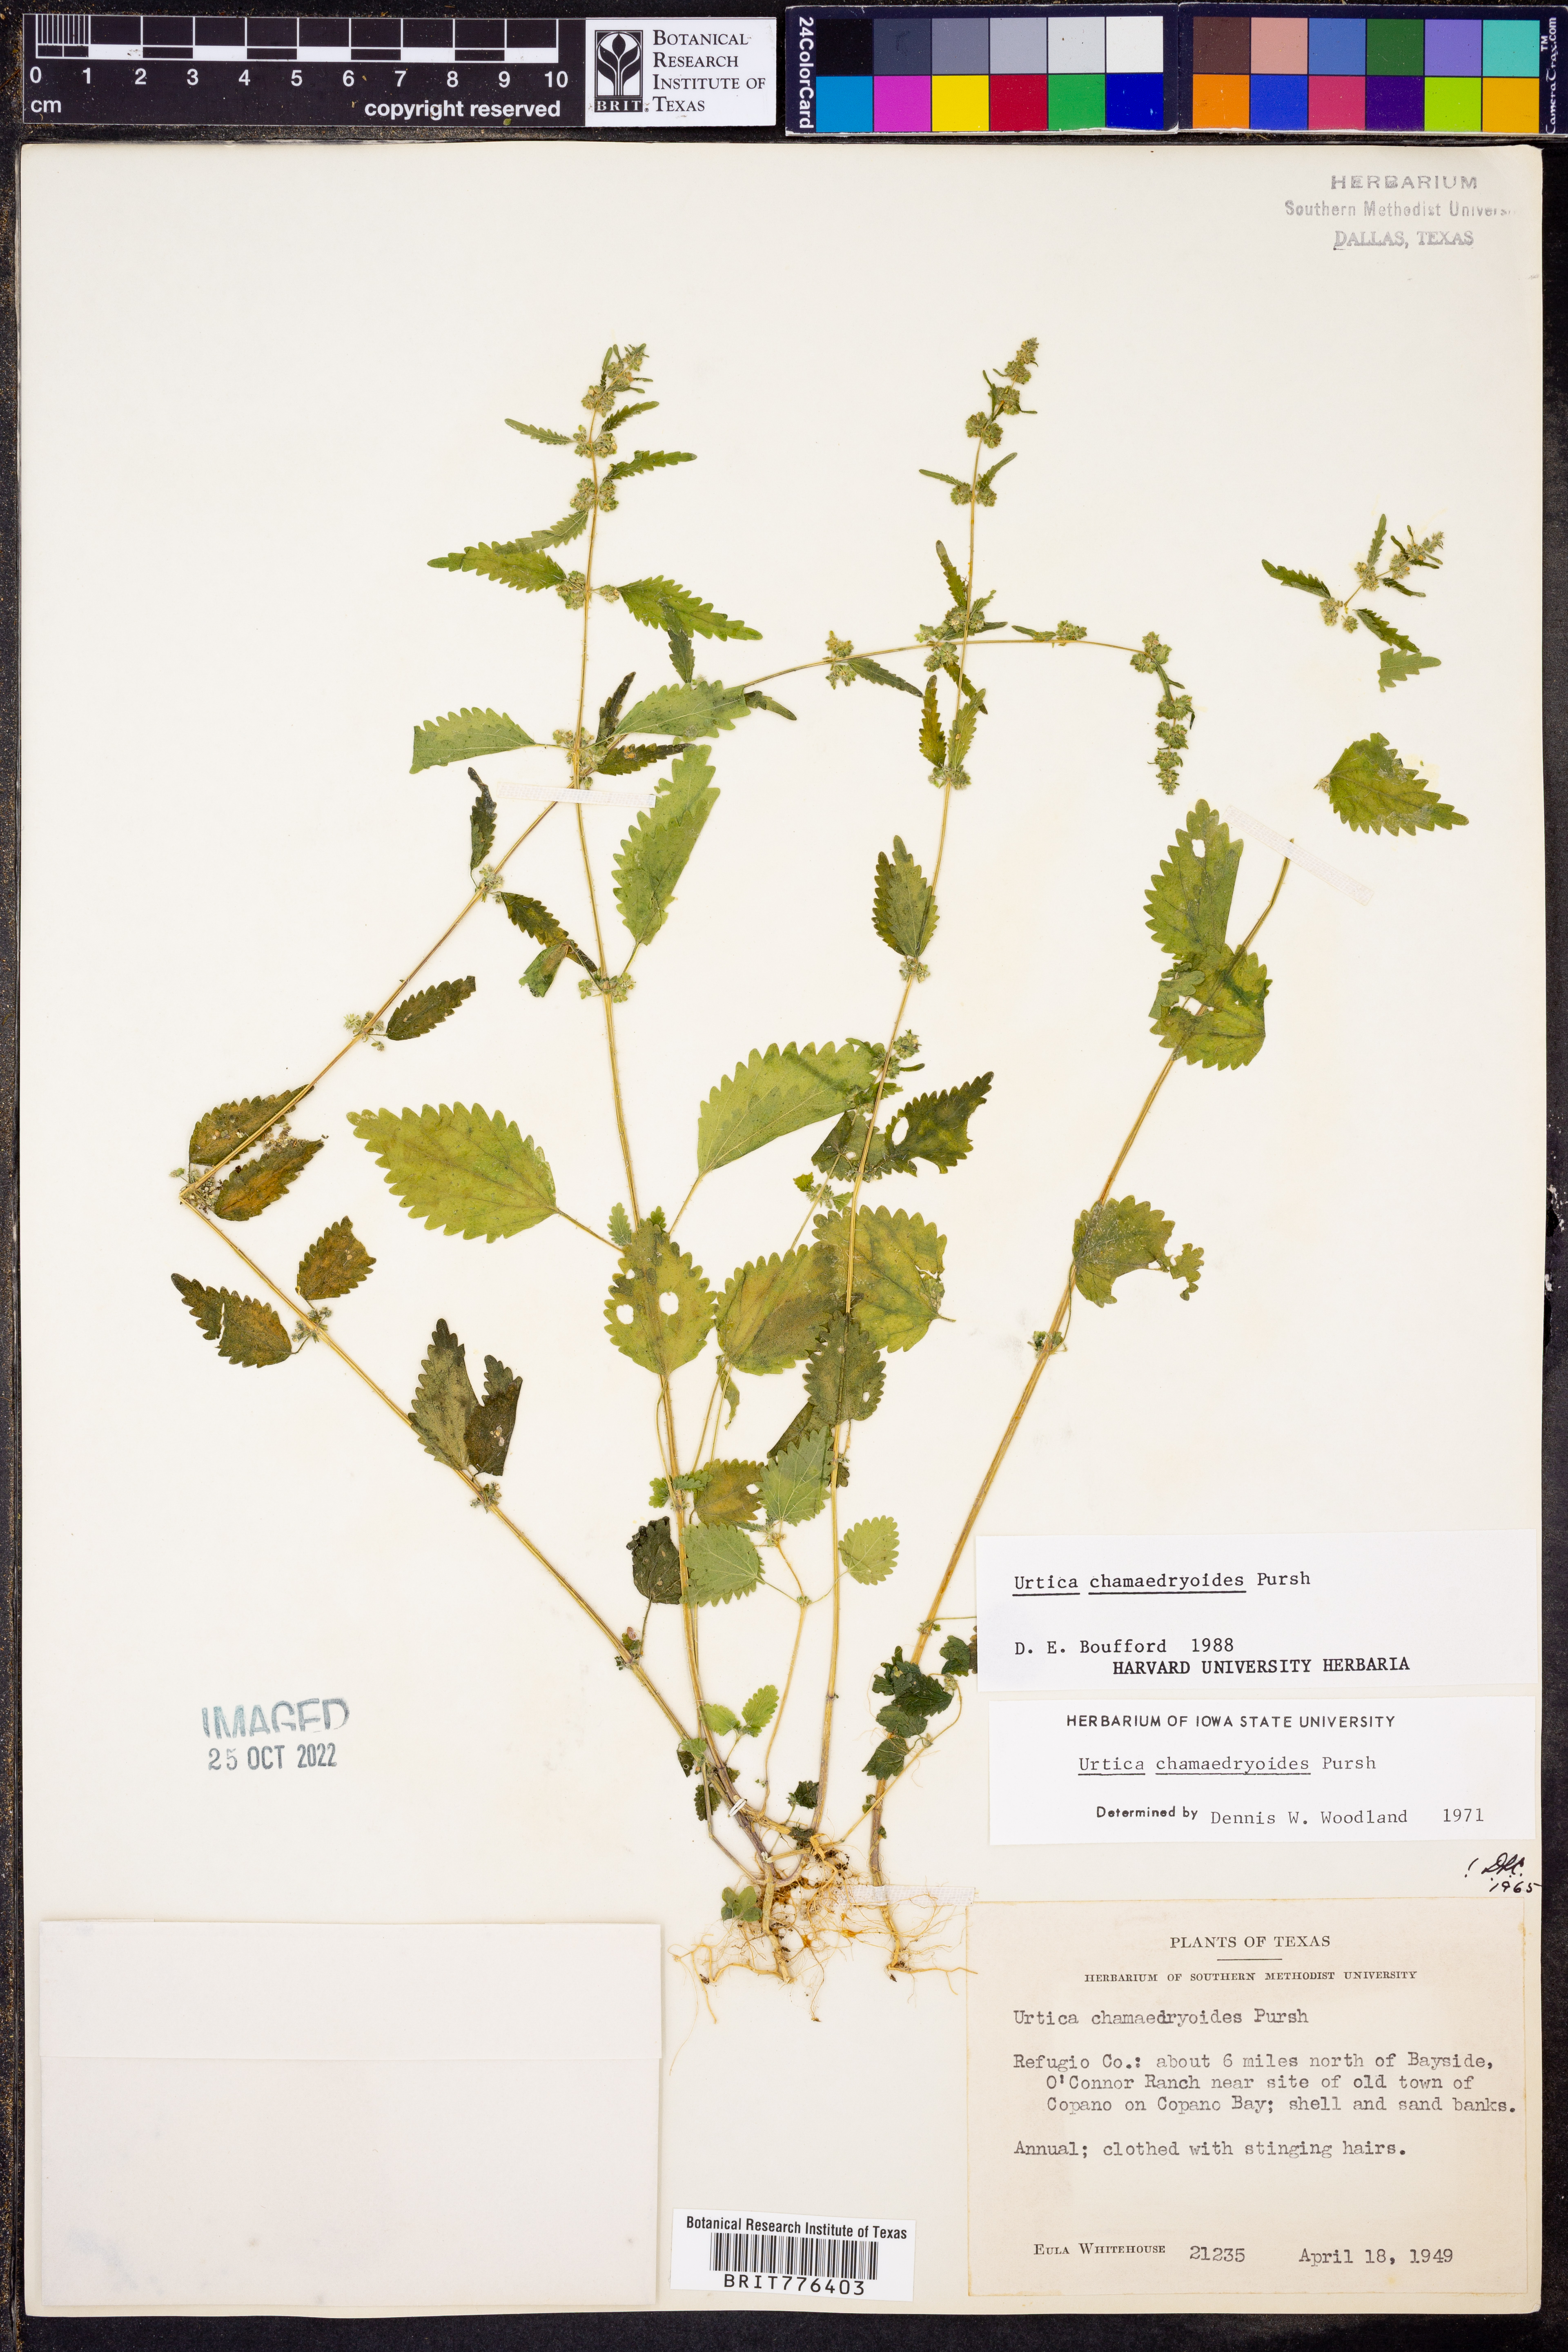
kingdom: Plantae
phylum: Tracheophyta
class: Magnoliopsida
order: Rosales
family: Urticaceae
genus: Urtica
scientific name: Urtica chamaedryoides
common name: Heart-leaf nettle
